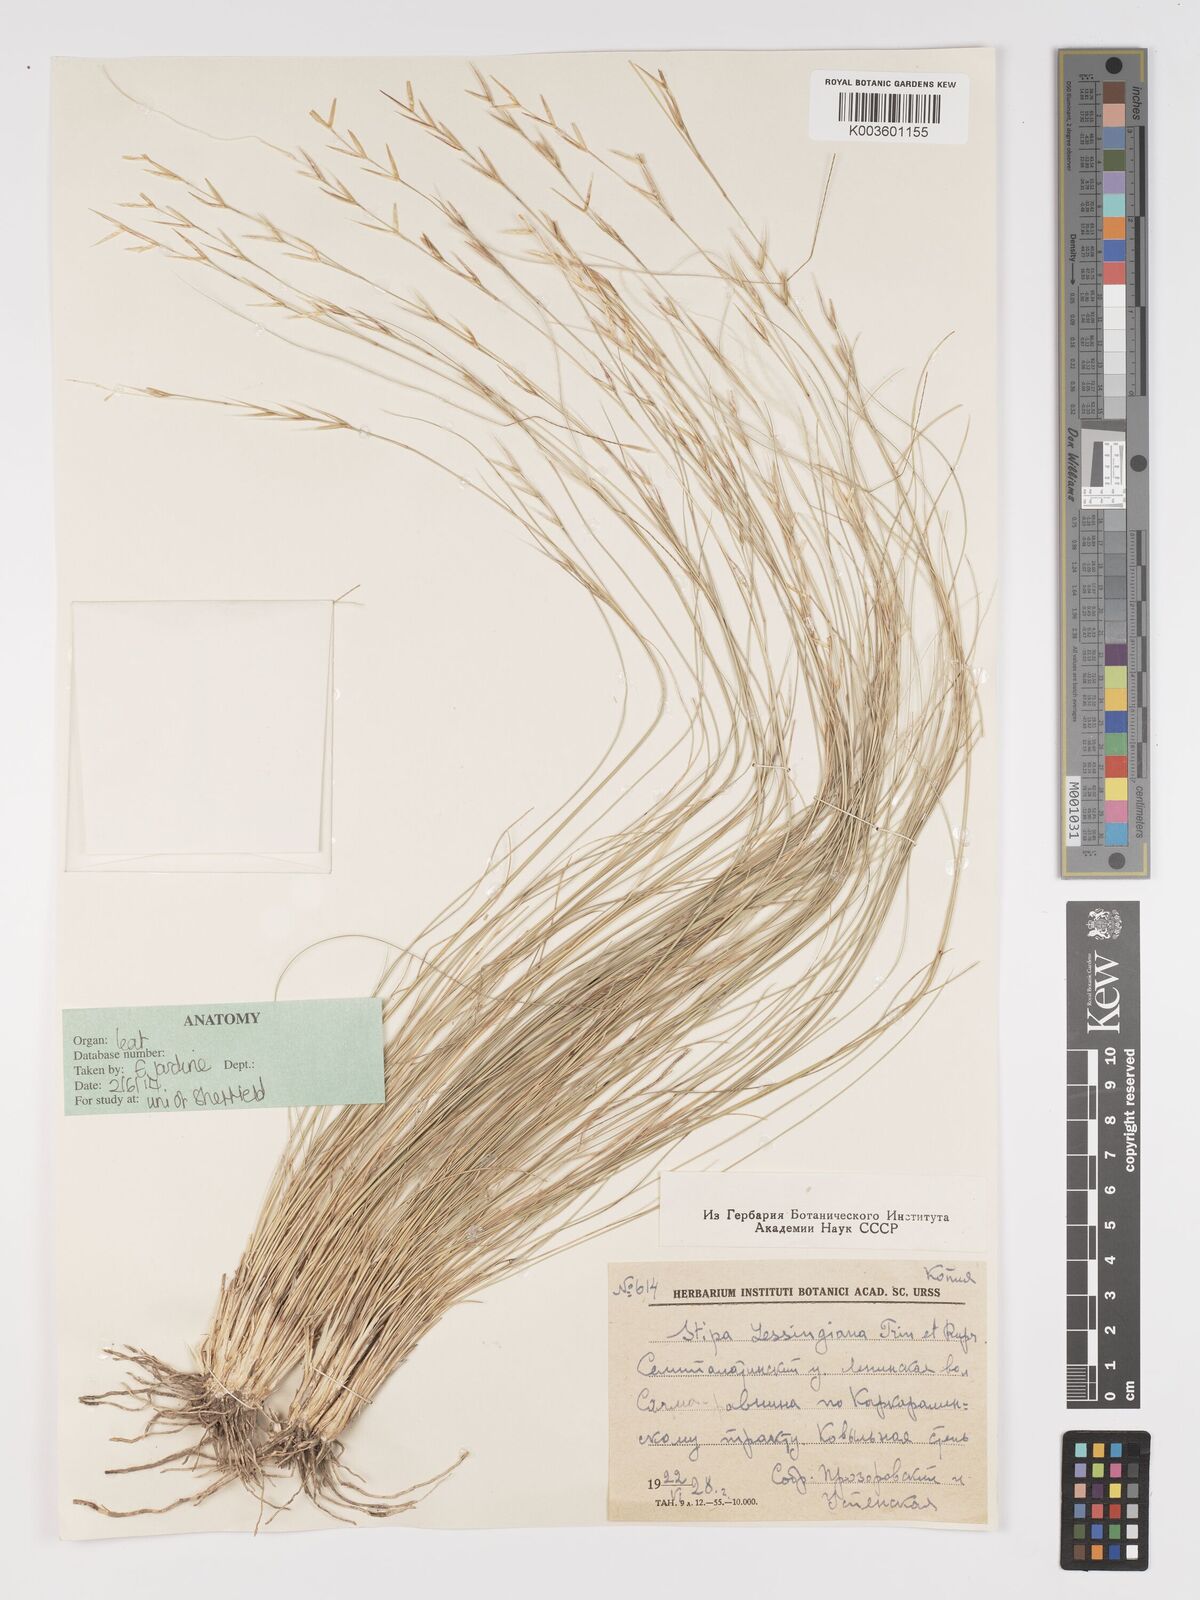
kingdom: Plantae
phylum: Tracheophyta
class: Liliopsida
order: Poales
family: Poaceae
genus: Stipa
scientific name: Stipa lessingiana
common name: Needle grass
